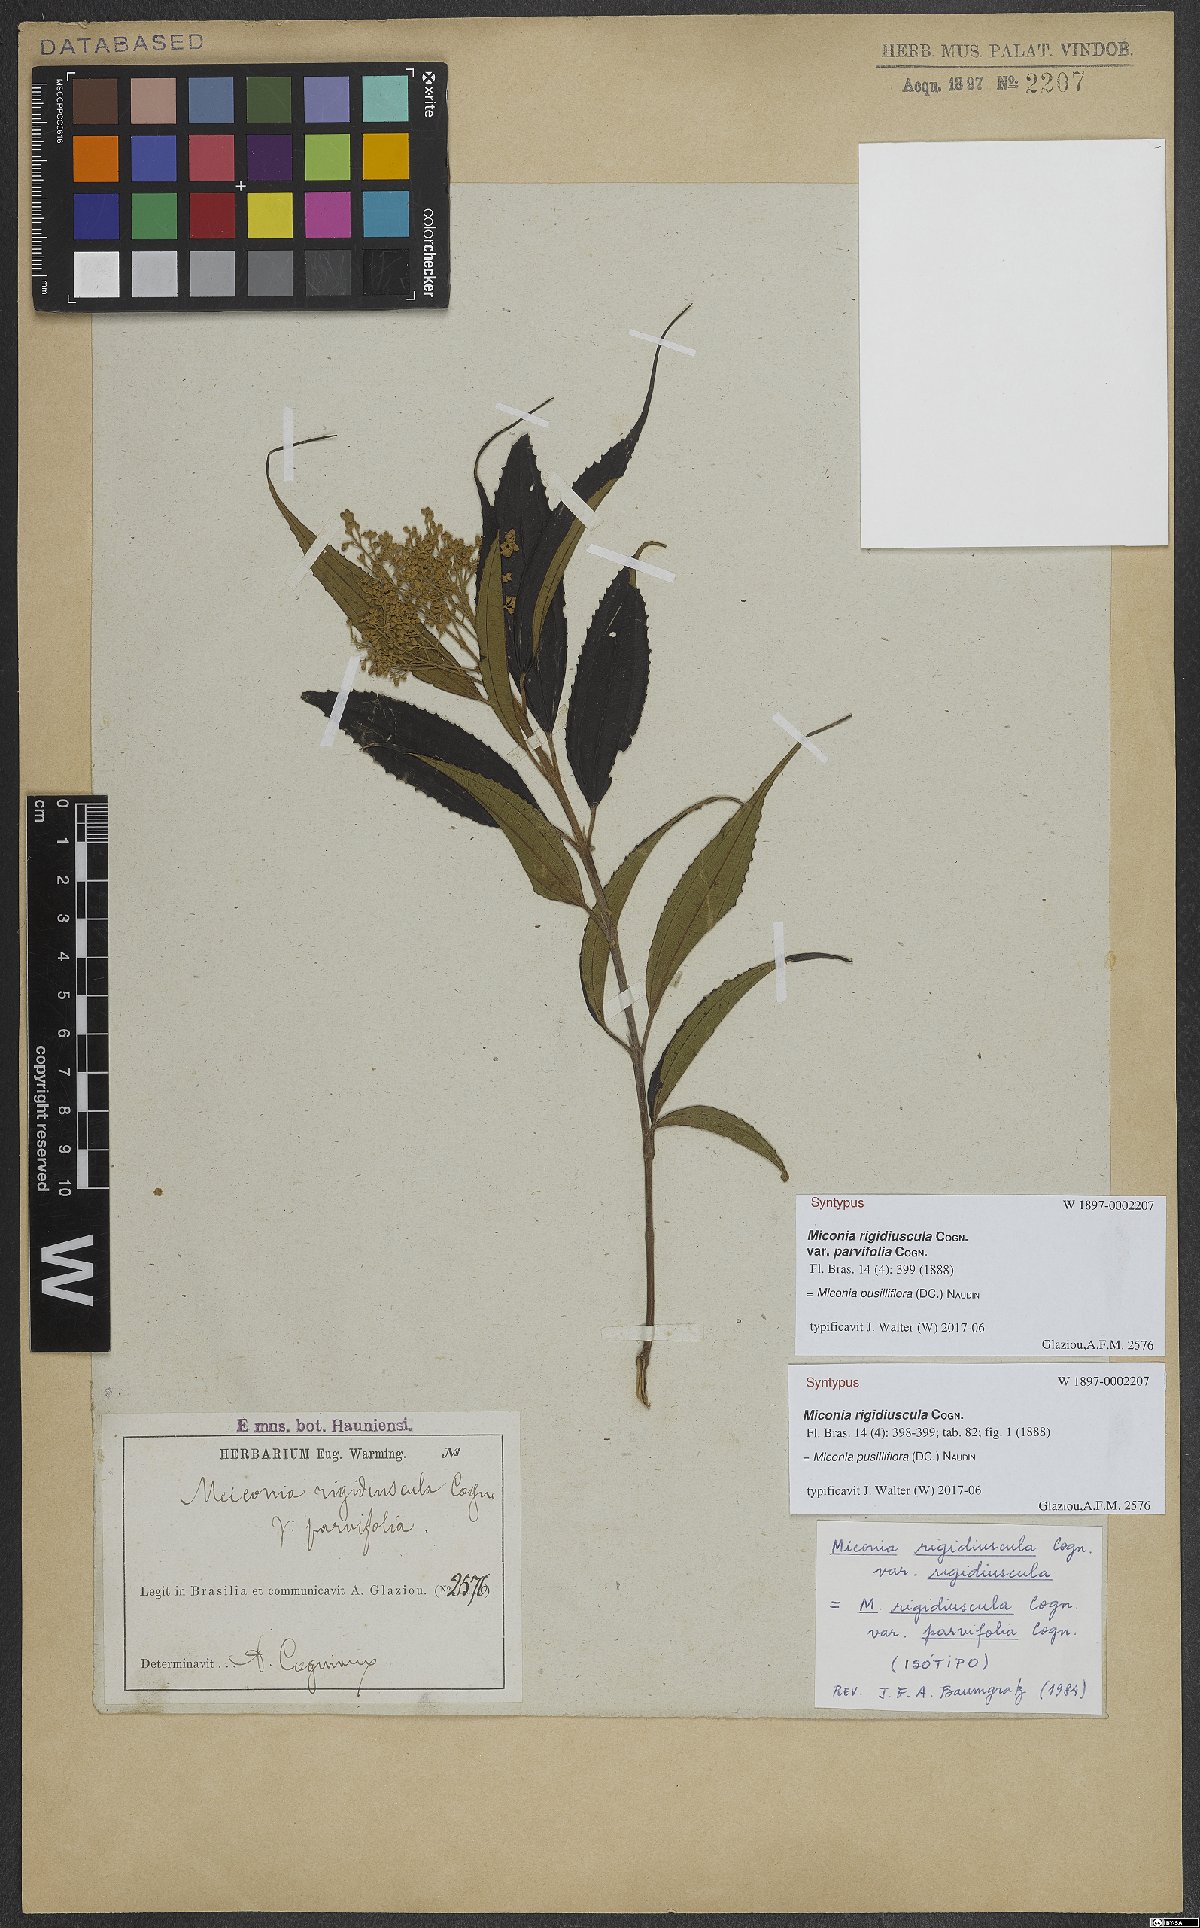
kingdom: Plantae
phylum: Tracheophyta
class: Magnoliopsida
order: Myrtales
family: Melastomataceae
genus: Miconia
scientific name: Miconia pusilliflora
